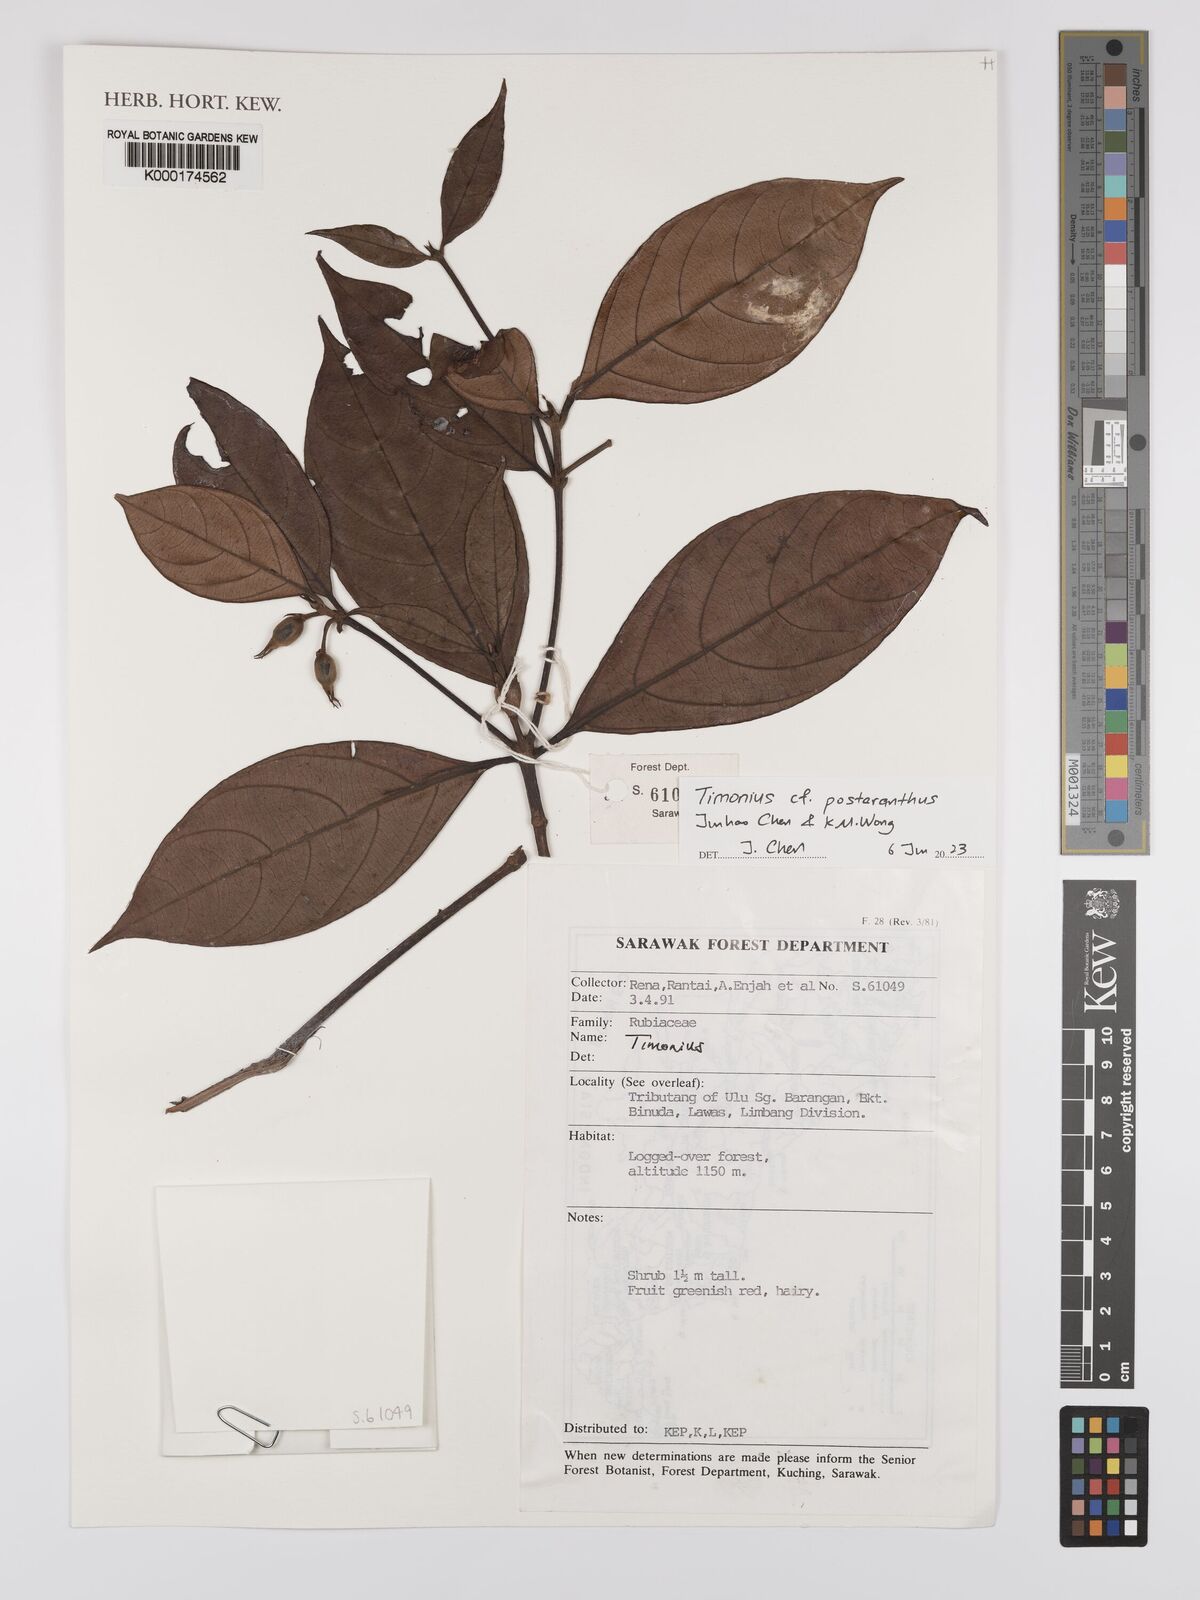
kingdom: Plantae
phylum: Tracheophyta
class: Magnoliopsida
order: Gentianales
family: Rubiaceae
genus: Timonius
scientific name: Timonius
